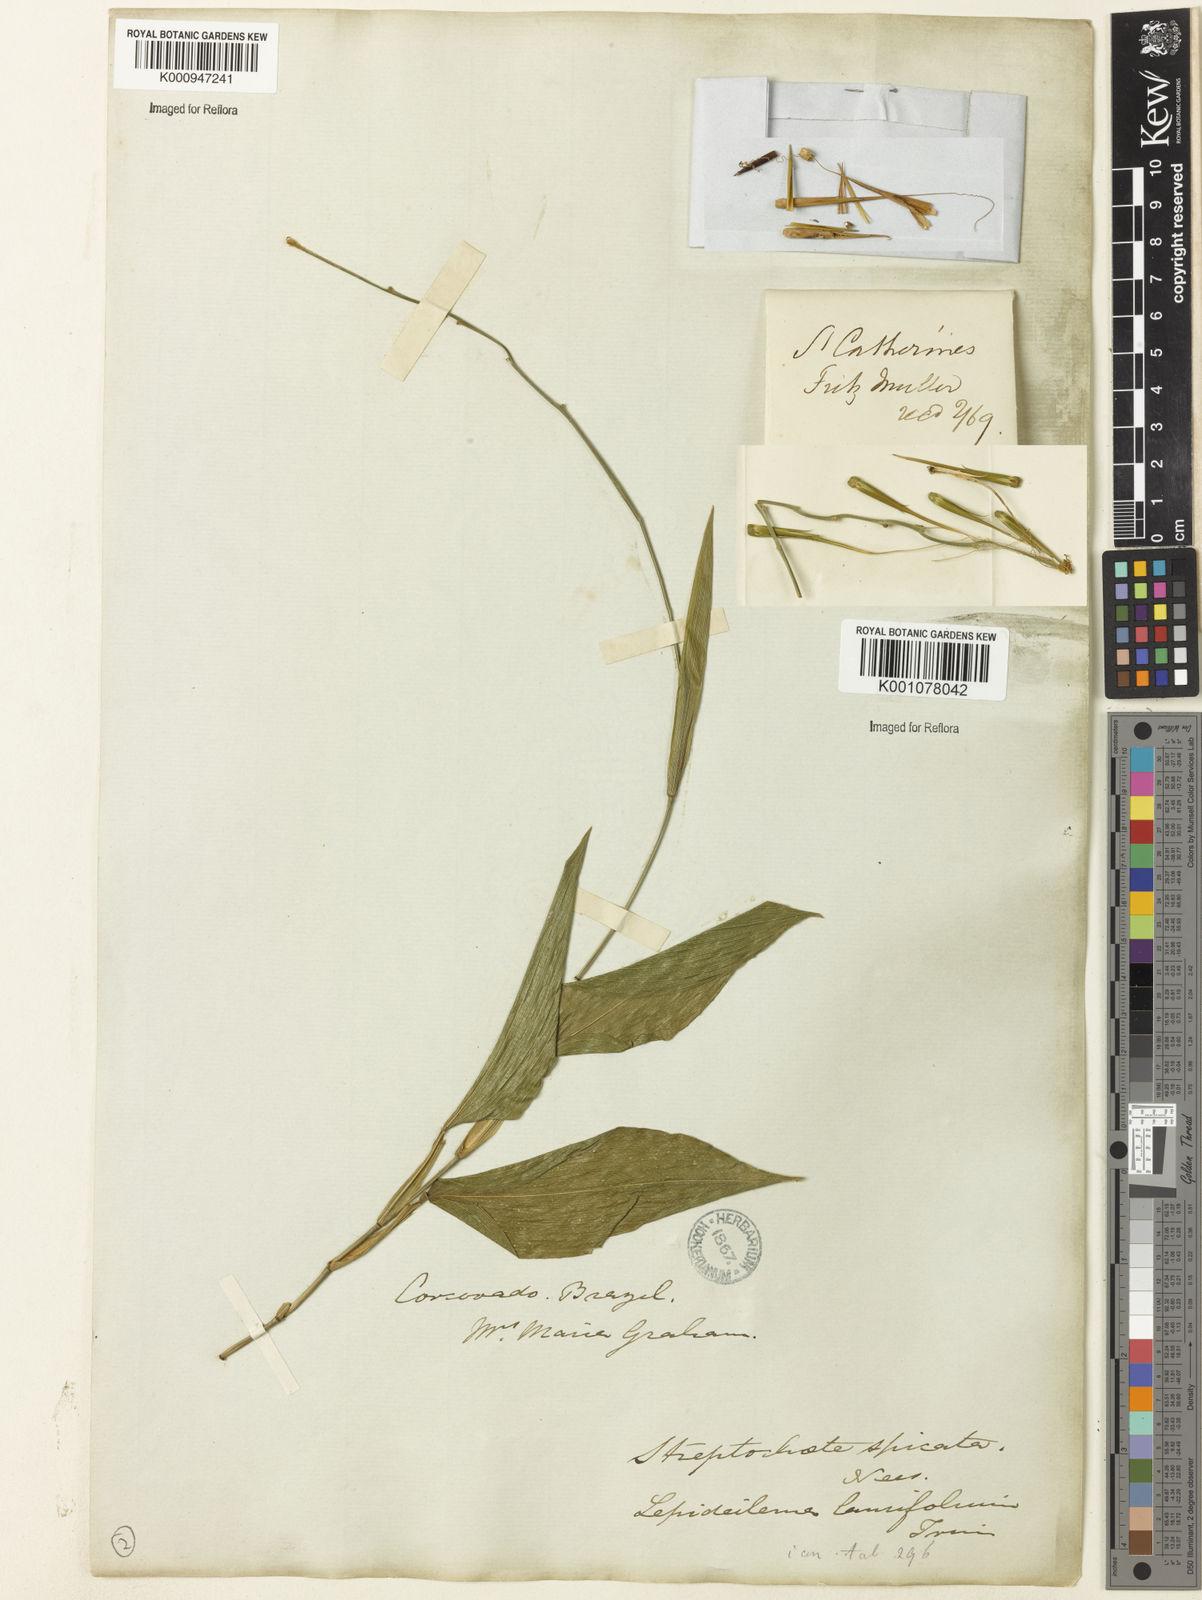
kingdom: Plantae
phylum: Tracheophyta
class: Liliopsida
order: Poales
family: Poaceae
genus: Streptochaeta
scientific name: Streptochaeta spicata
